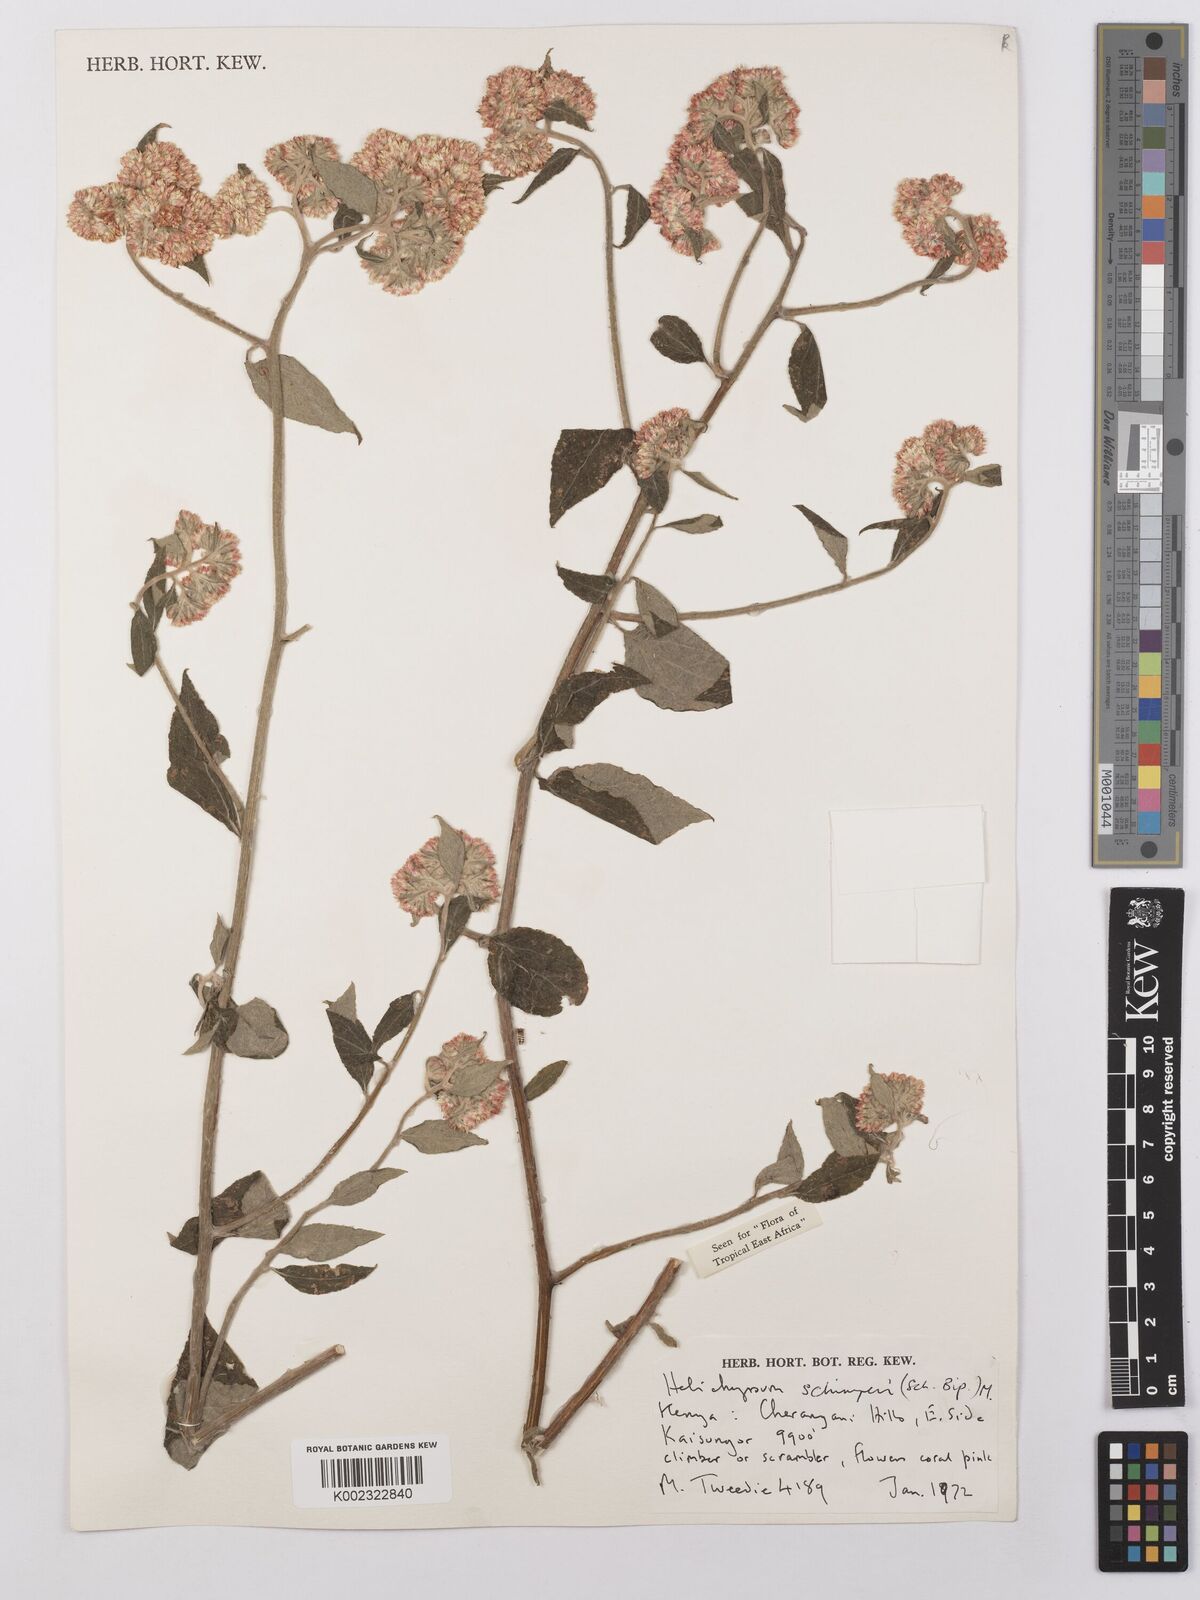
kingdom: Plantae
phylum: Tracheophyta
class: Magnoliopsida
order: Asterales
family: Asteraceae
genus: Helichrysum
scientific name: Helichrysum schimperi
